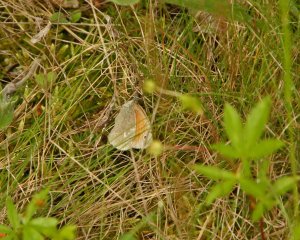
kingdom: Animalia
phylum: Arthropoda
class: Insecta
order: Lepidoptera
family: Nymphalidae
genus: Coenonympha
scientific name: Coenonympha tullia
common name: Large Heath
